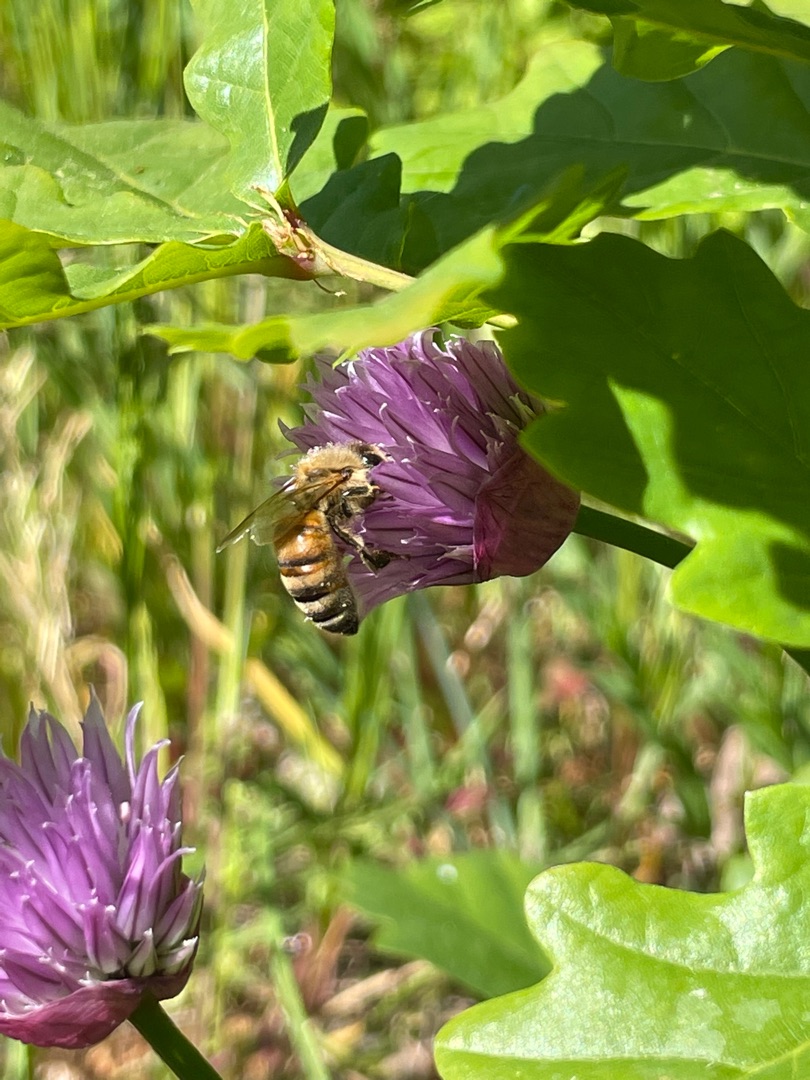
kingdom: Animalia
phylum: Arthropoda
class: Insecta
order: Hymenoptera
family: Apidae
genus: Apis
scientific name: Apis mellifera
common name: Honningbi
